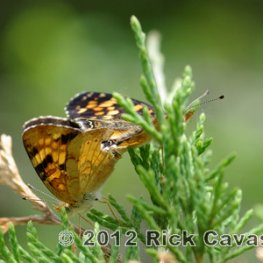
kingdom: Animalia
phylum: Arthropoda
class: Insecta
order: Lepidoptera
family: Nymphalidae
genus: Phyciodes
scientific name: Phyciodes tharos
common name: Pearl Crescent
